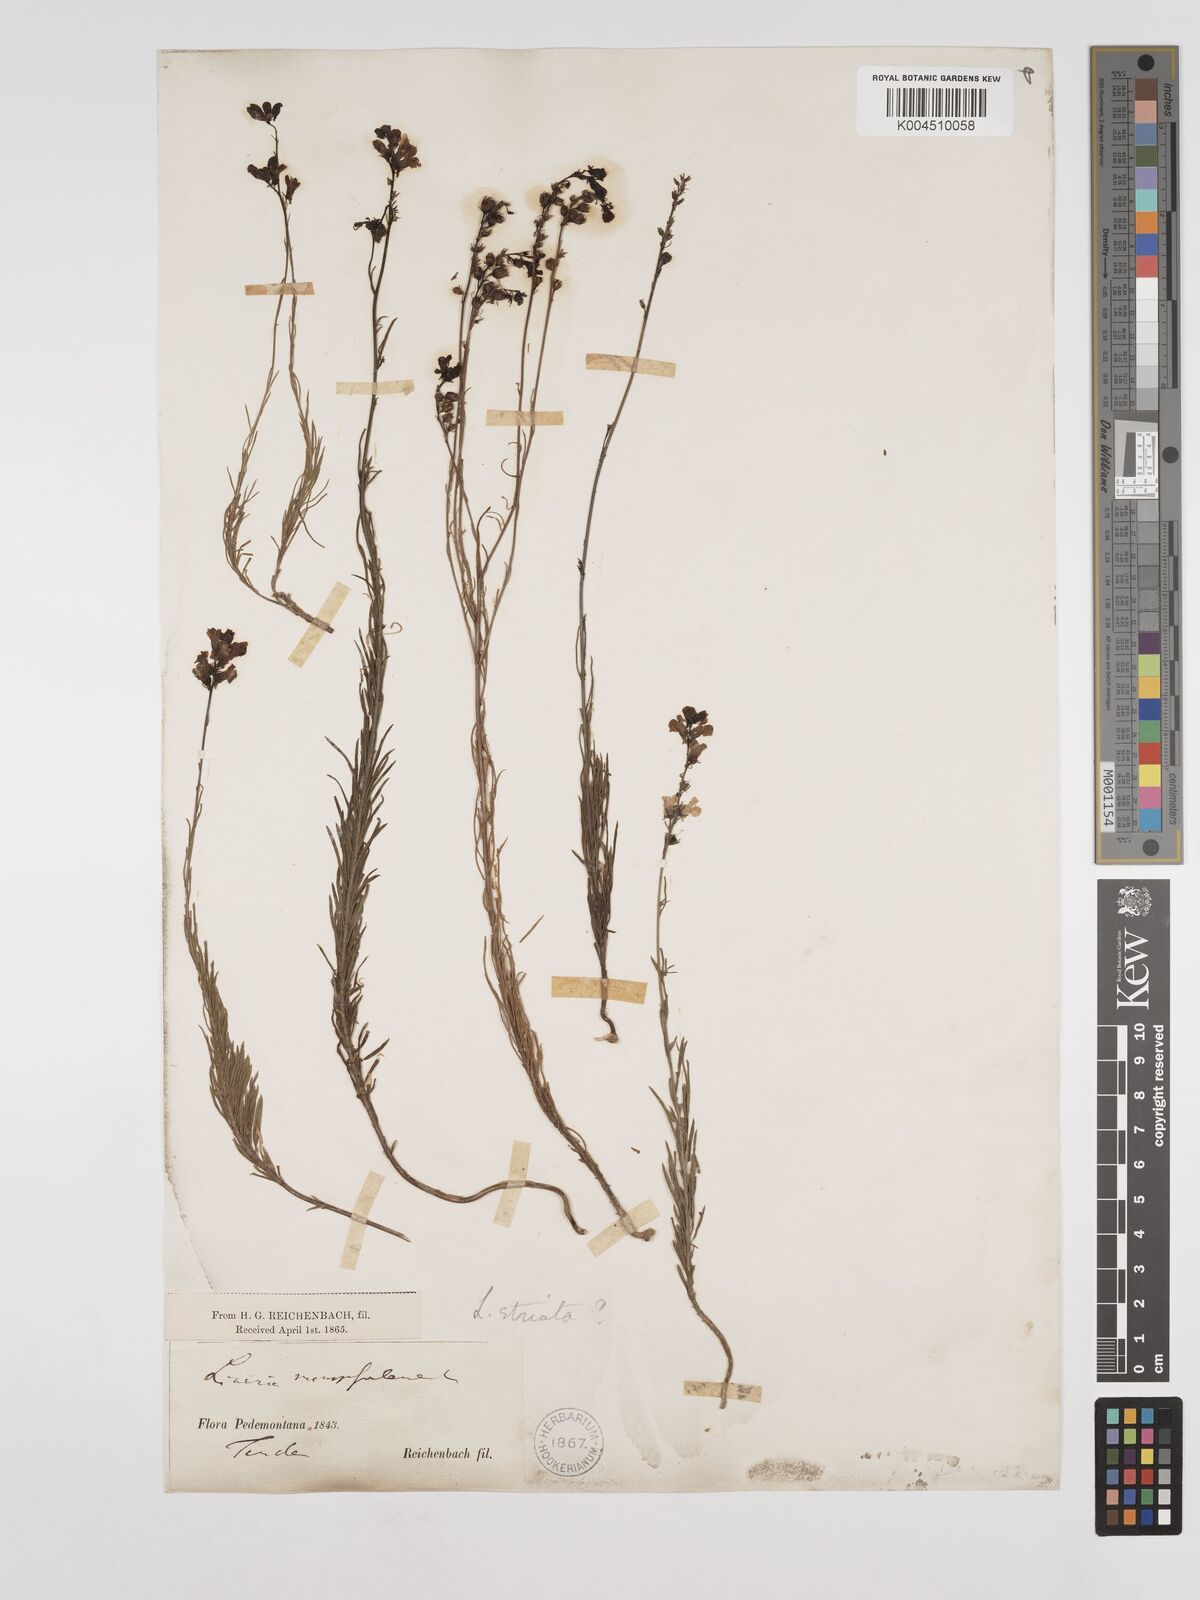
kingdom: Plantae
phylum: Tracheophyta
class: Magnoliopsida
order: Lamiales
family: Plantaginaceae
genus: Linaria
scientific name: Linaria repens
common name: Pale toadflax
